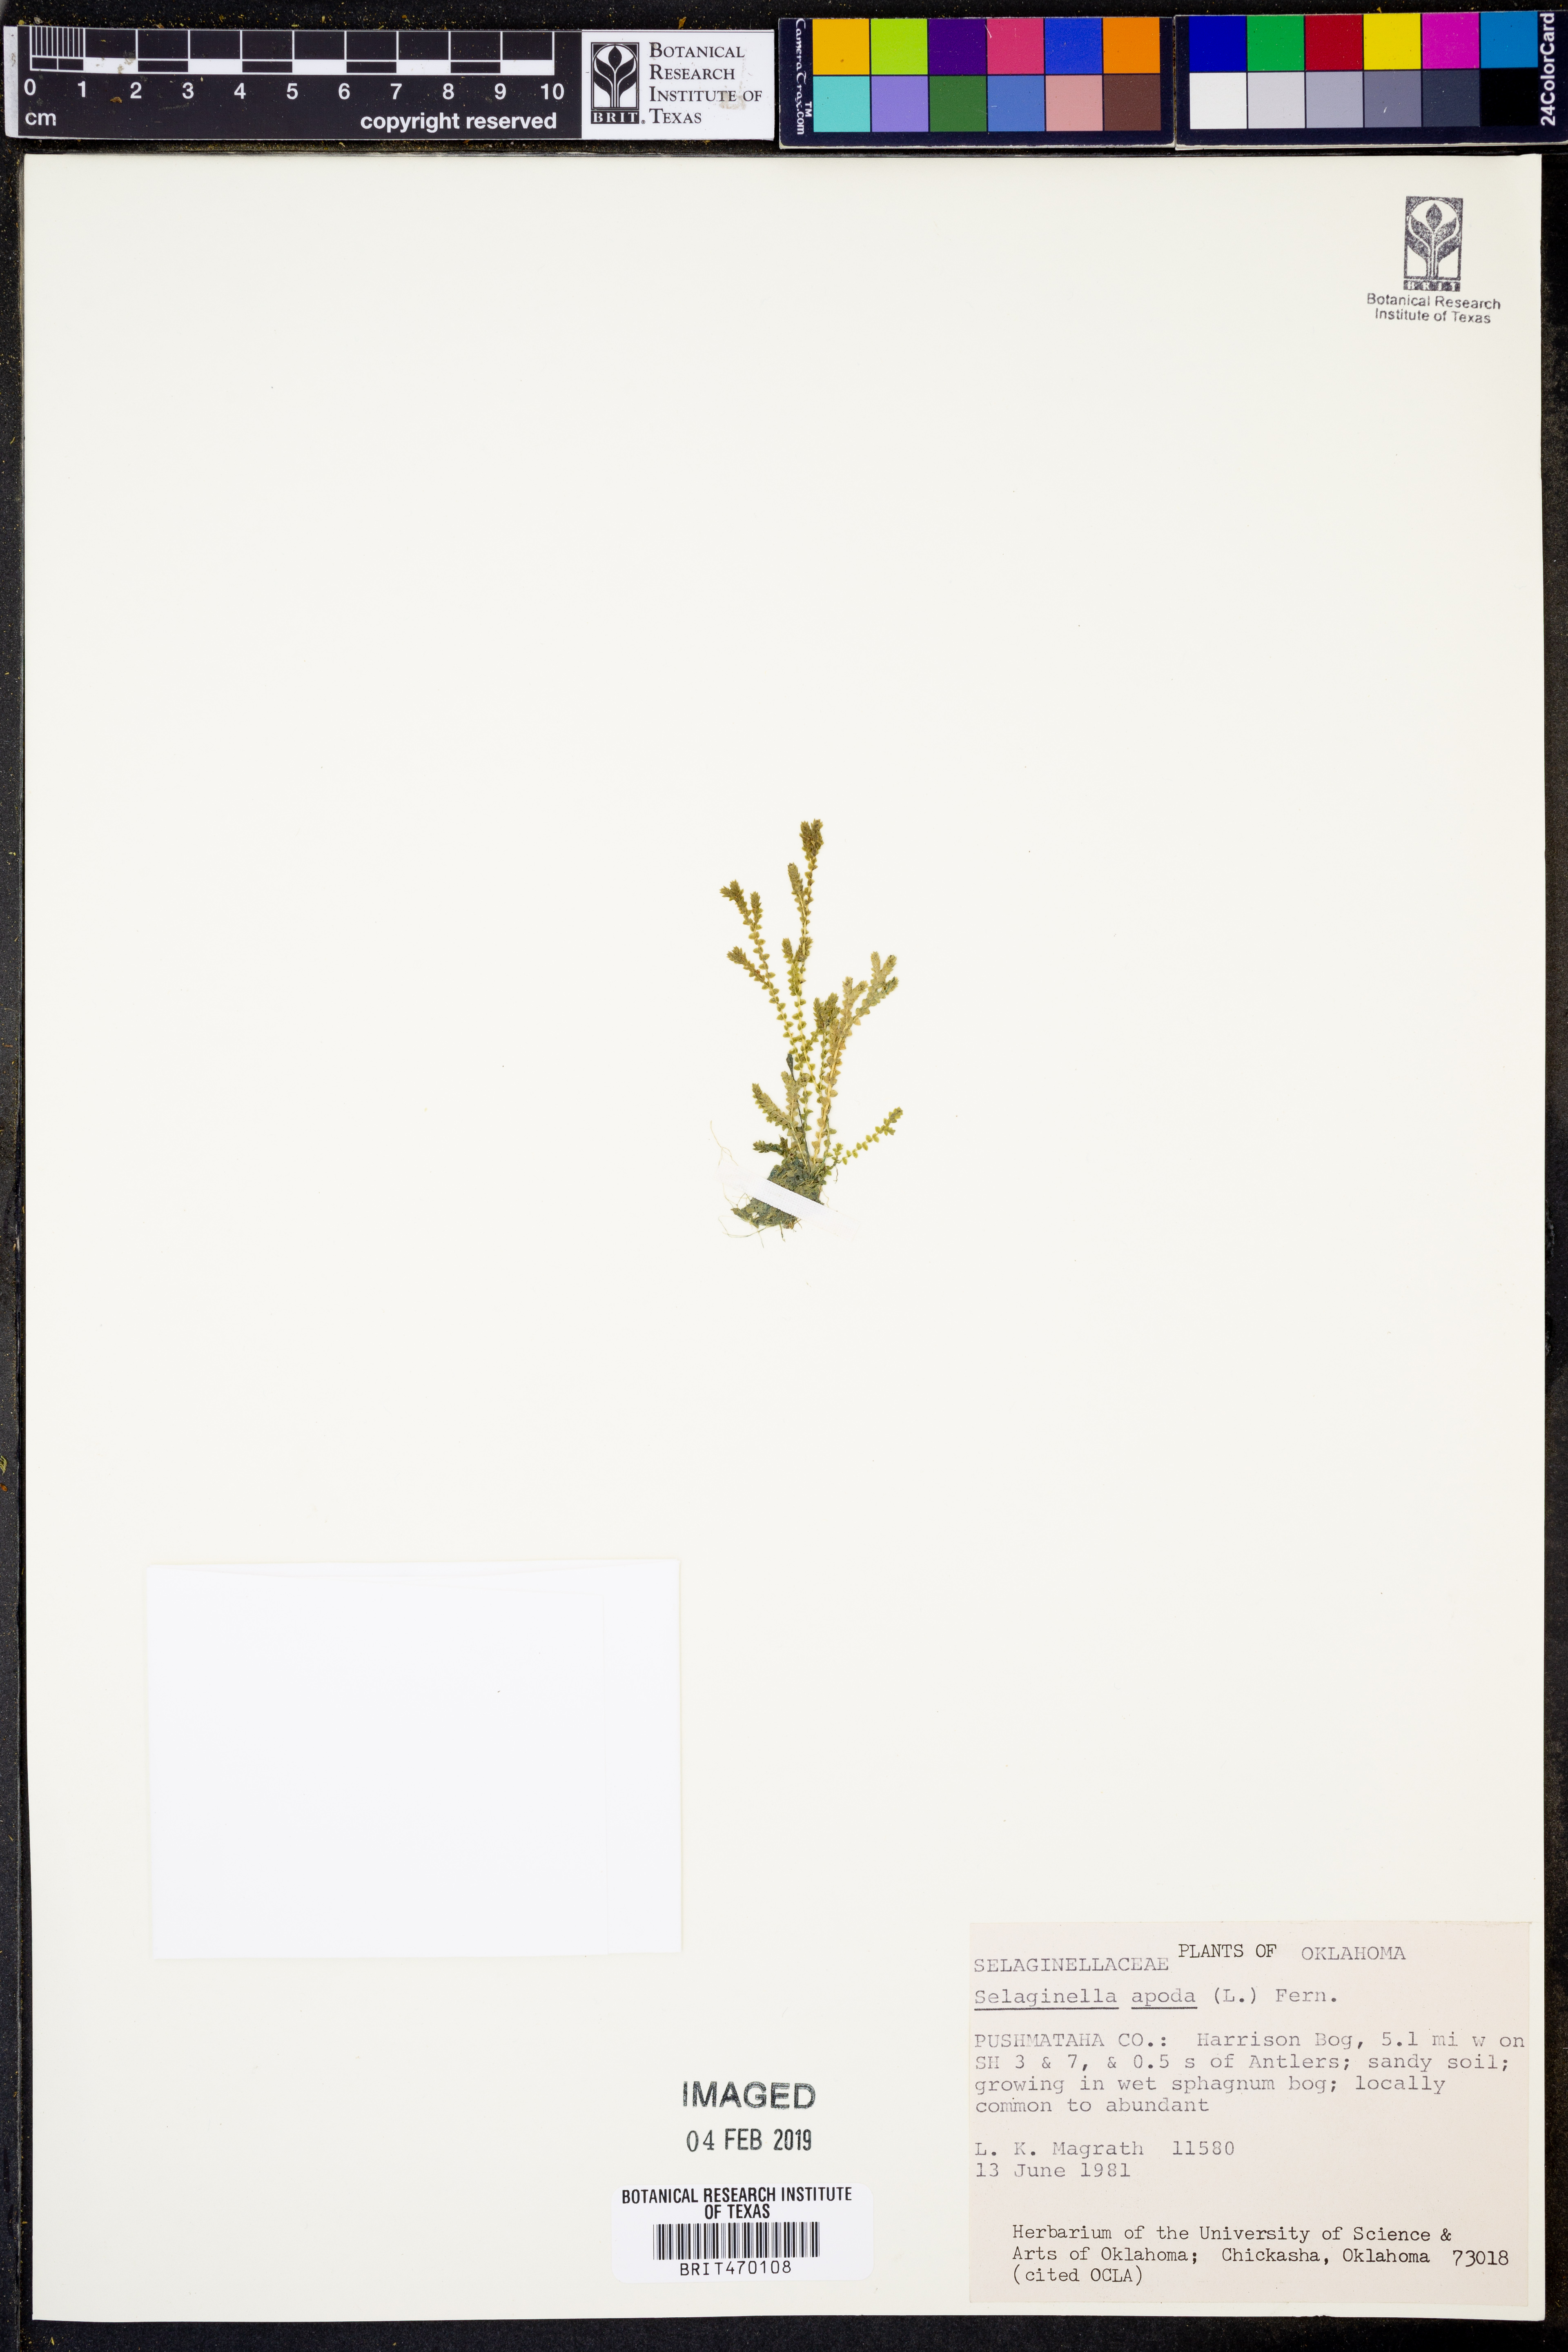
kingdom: Plantae
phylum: Tracheophyta
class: Lycopodiopsida
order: Selaginellales
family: Selaginellaceae
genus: Selaginella
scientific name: Selaginella apoda
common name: Creeping spikemoss
